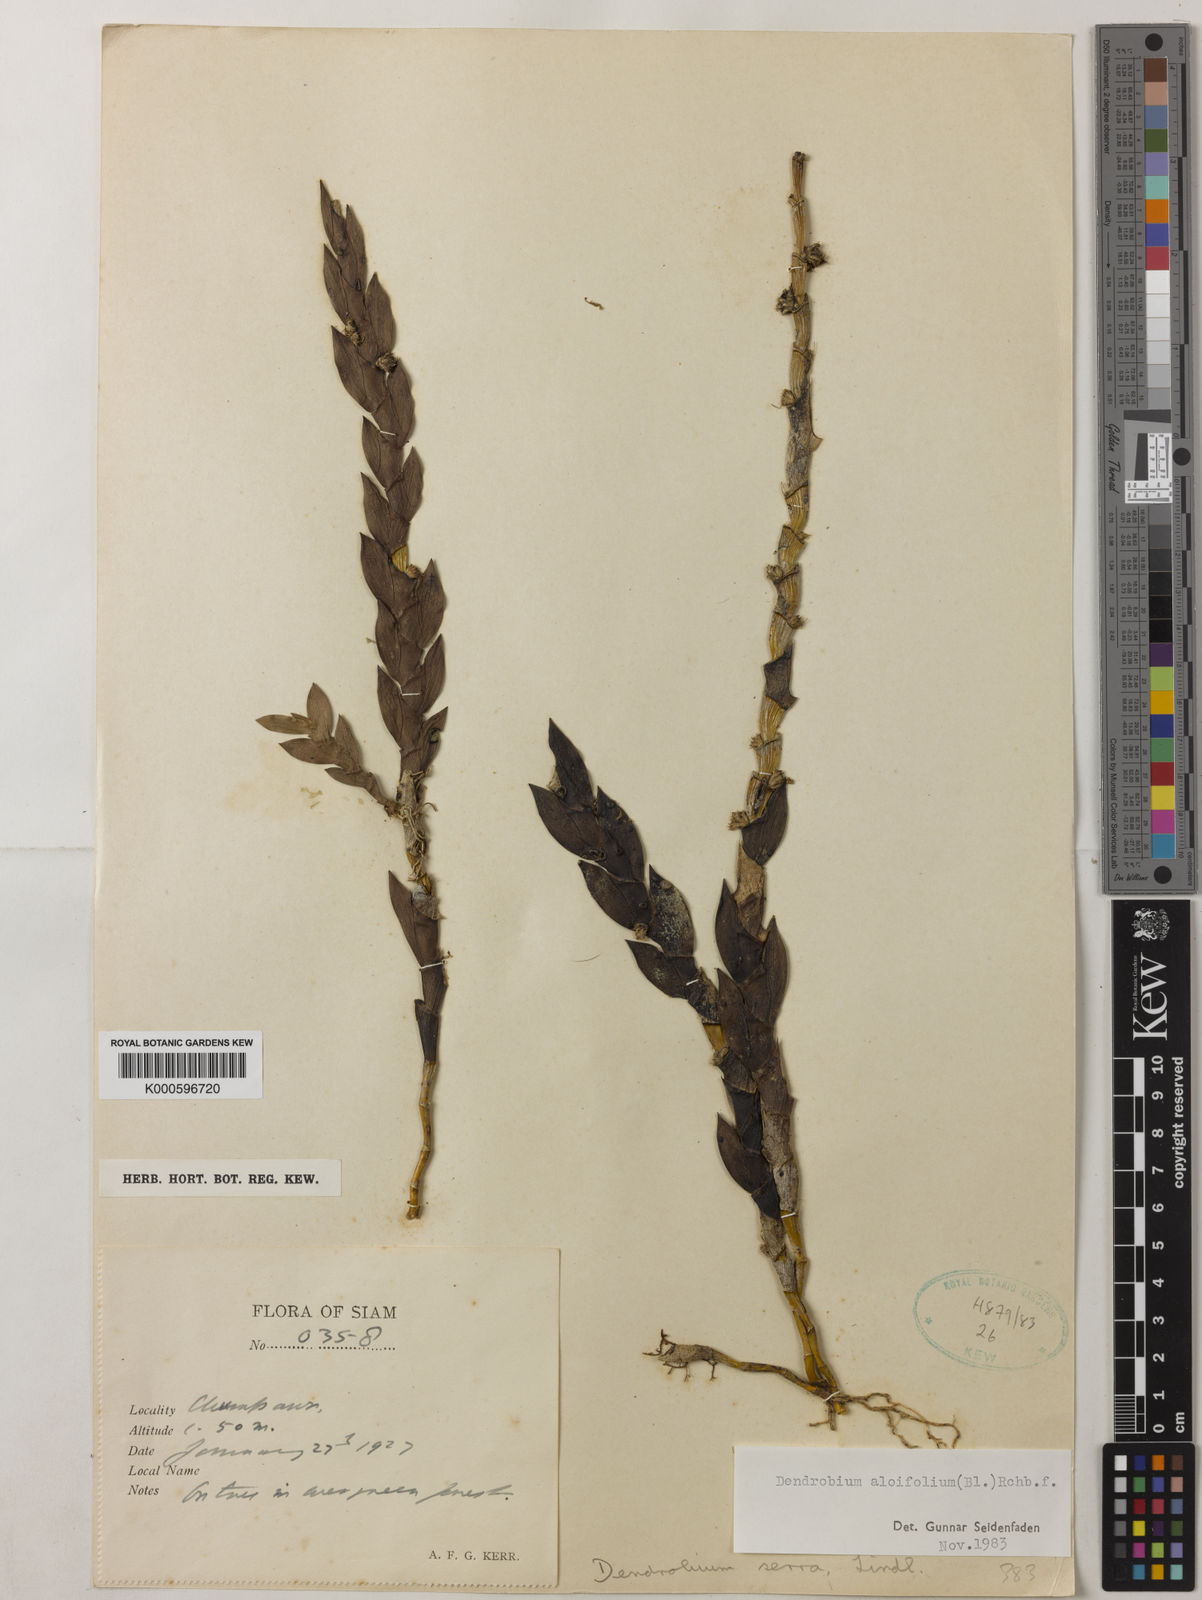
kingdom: Plantae
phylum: Tracheophyta
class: Liliopsida
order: Asparagales
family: Orchidaceae
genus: Dendrobium
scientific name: Dendrobium aloifolium
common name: Aloe-like dendrobium
